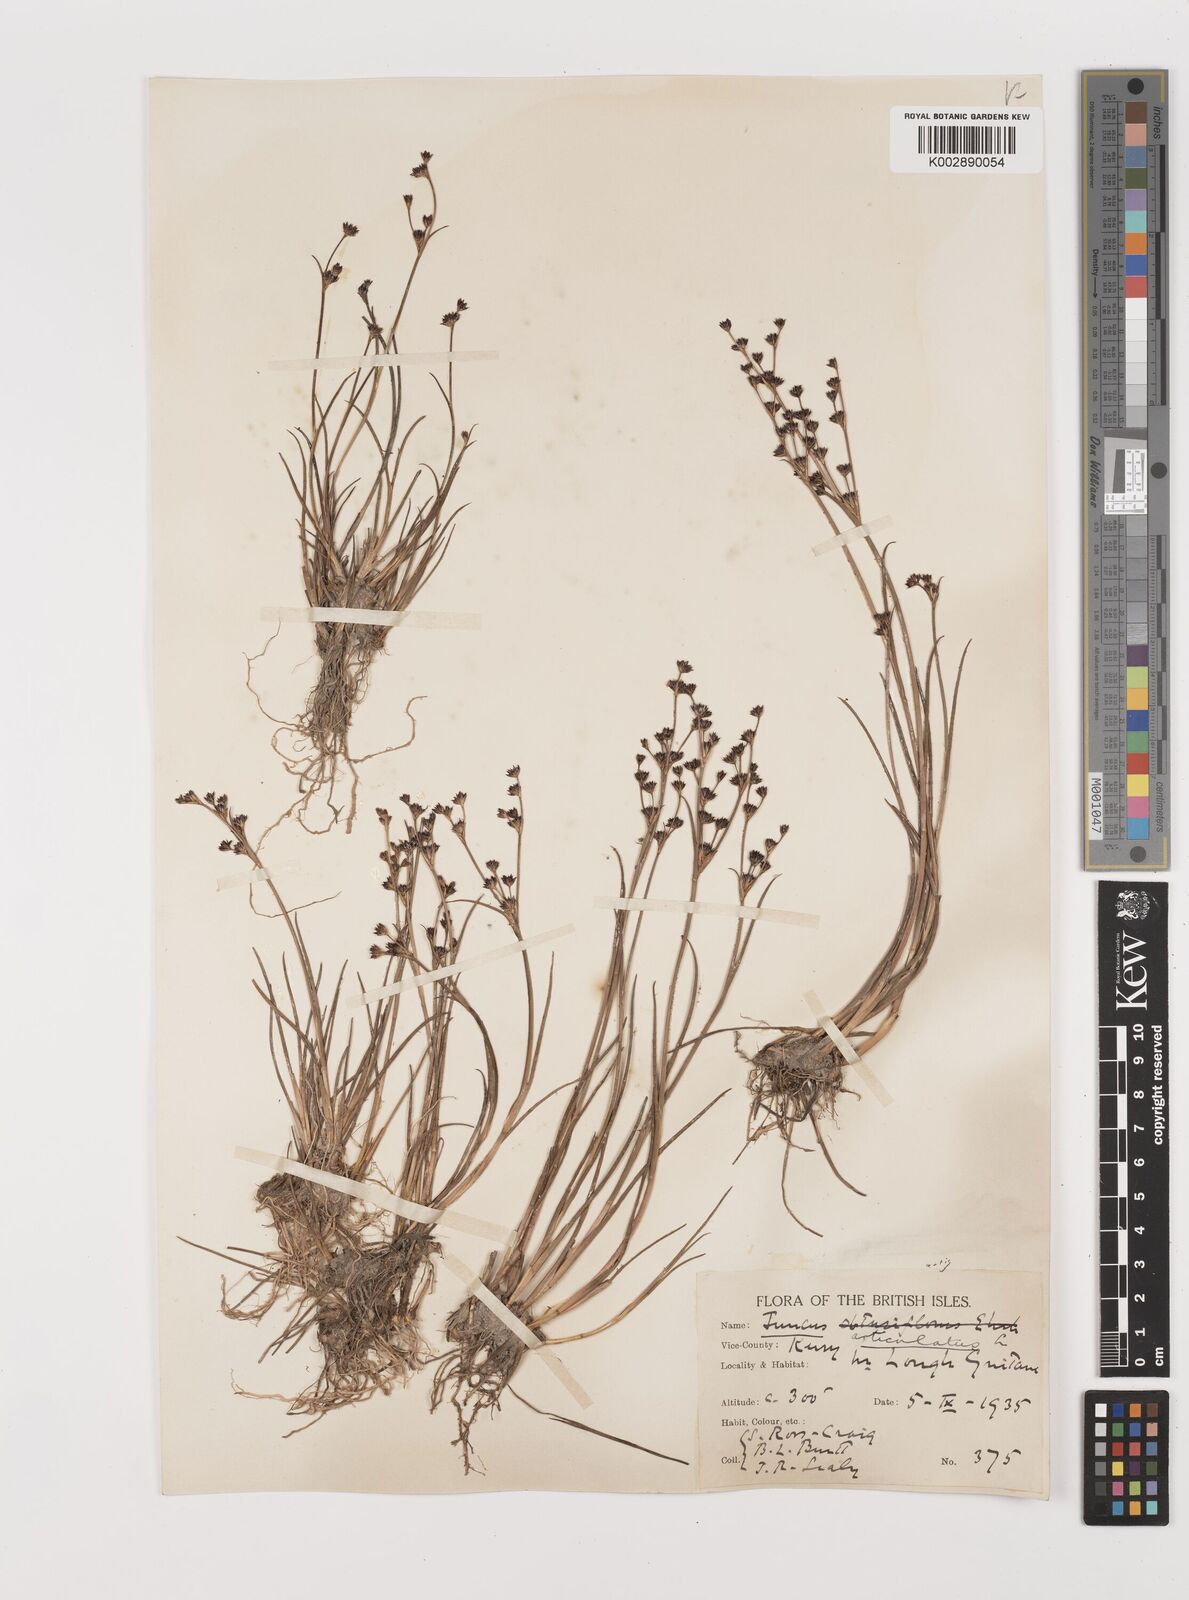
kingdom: Plantae
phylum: Tracheophyta
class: Liliopsida
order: Poales
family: Juncaceae
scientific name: Juncaceae
